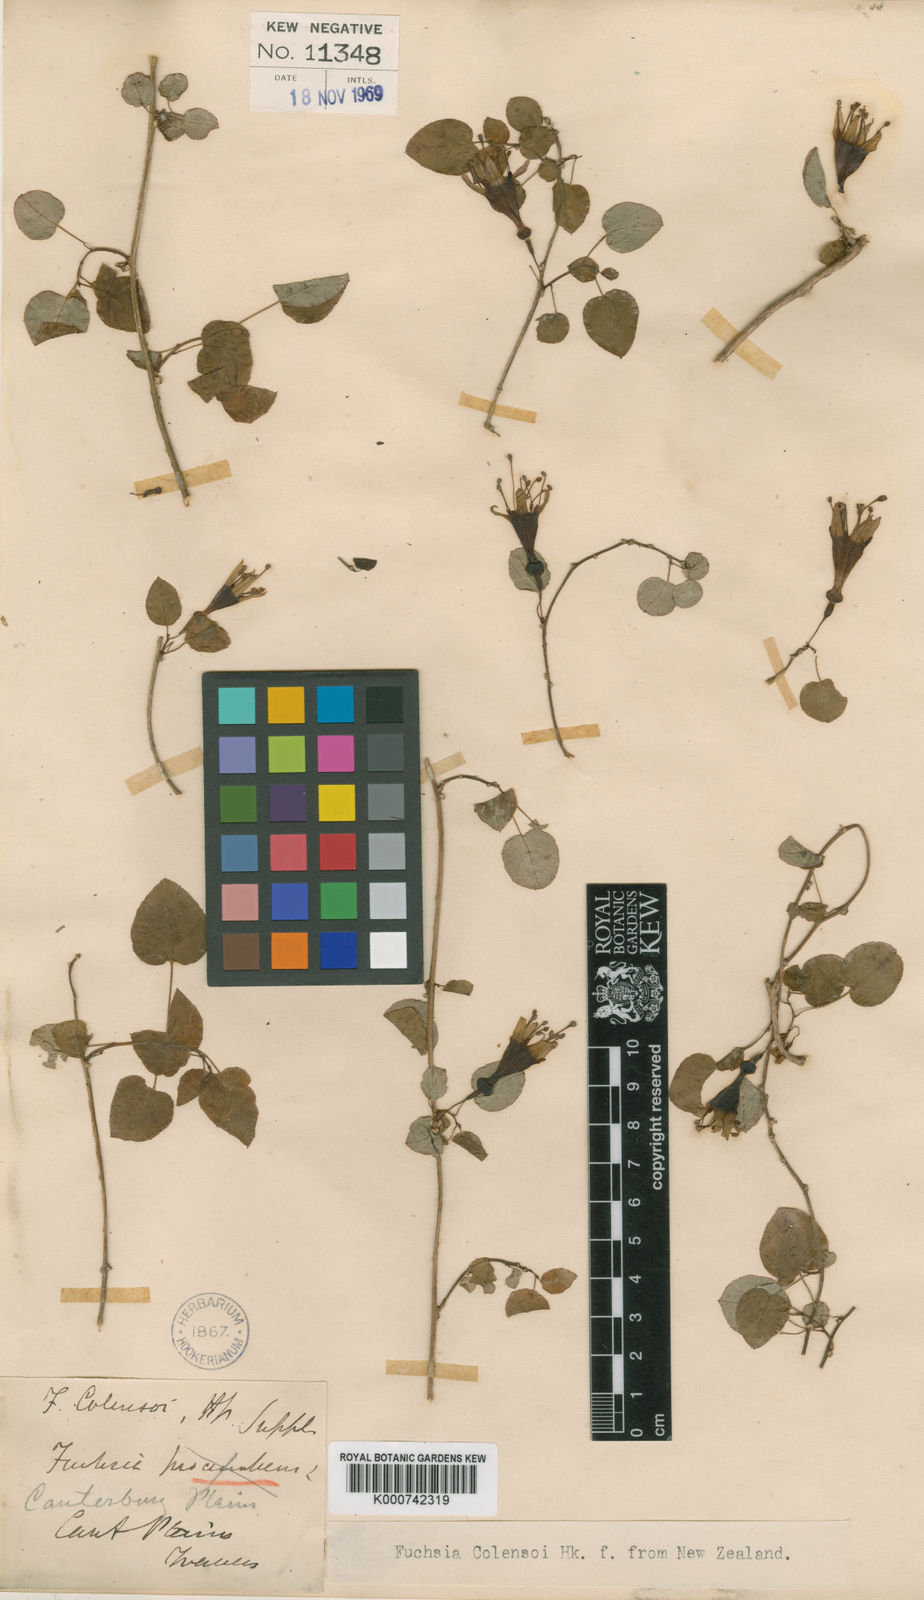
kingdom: Plantae
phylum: Tracheophyta
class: Magnoliopsida
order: Myrtales
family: Onagraceae
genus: Fuchsia
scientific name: Fuchsia colensoi
